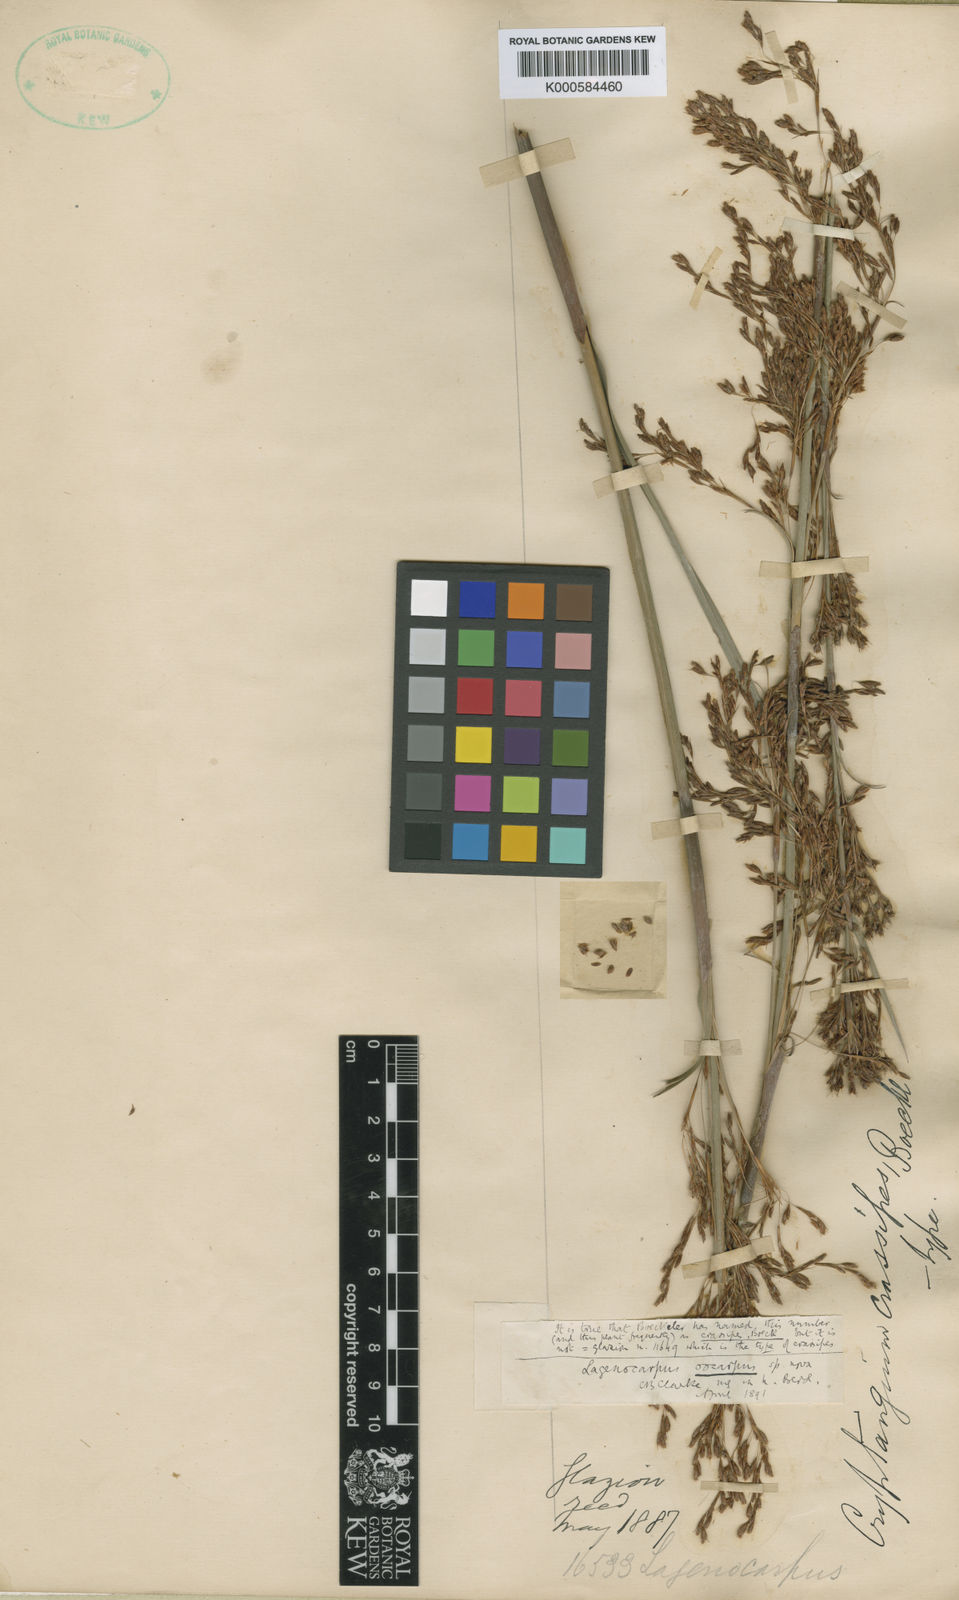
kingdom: Plantae
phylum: Tracheophyta
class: Liliopsida
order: Poales
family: Cyperaceae
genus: Cryptangium
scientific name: Cryptangium
